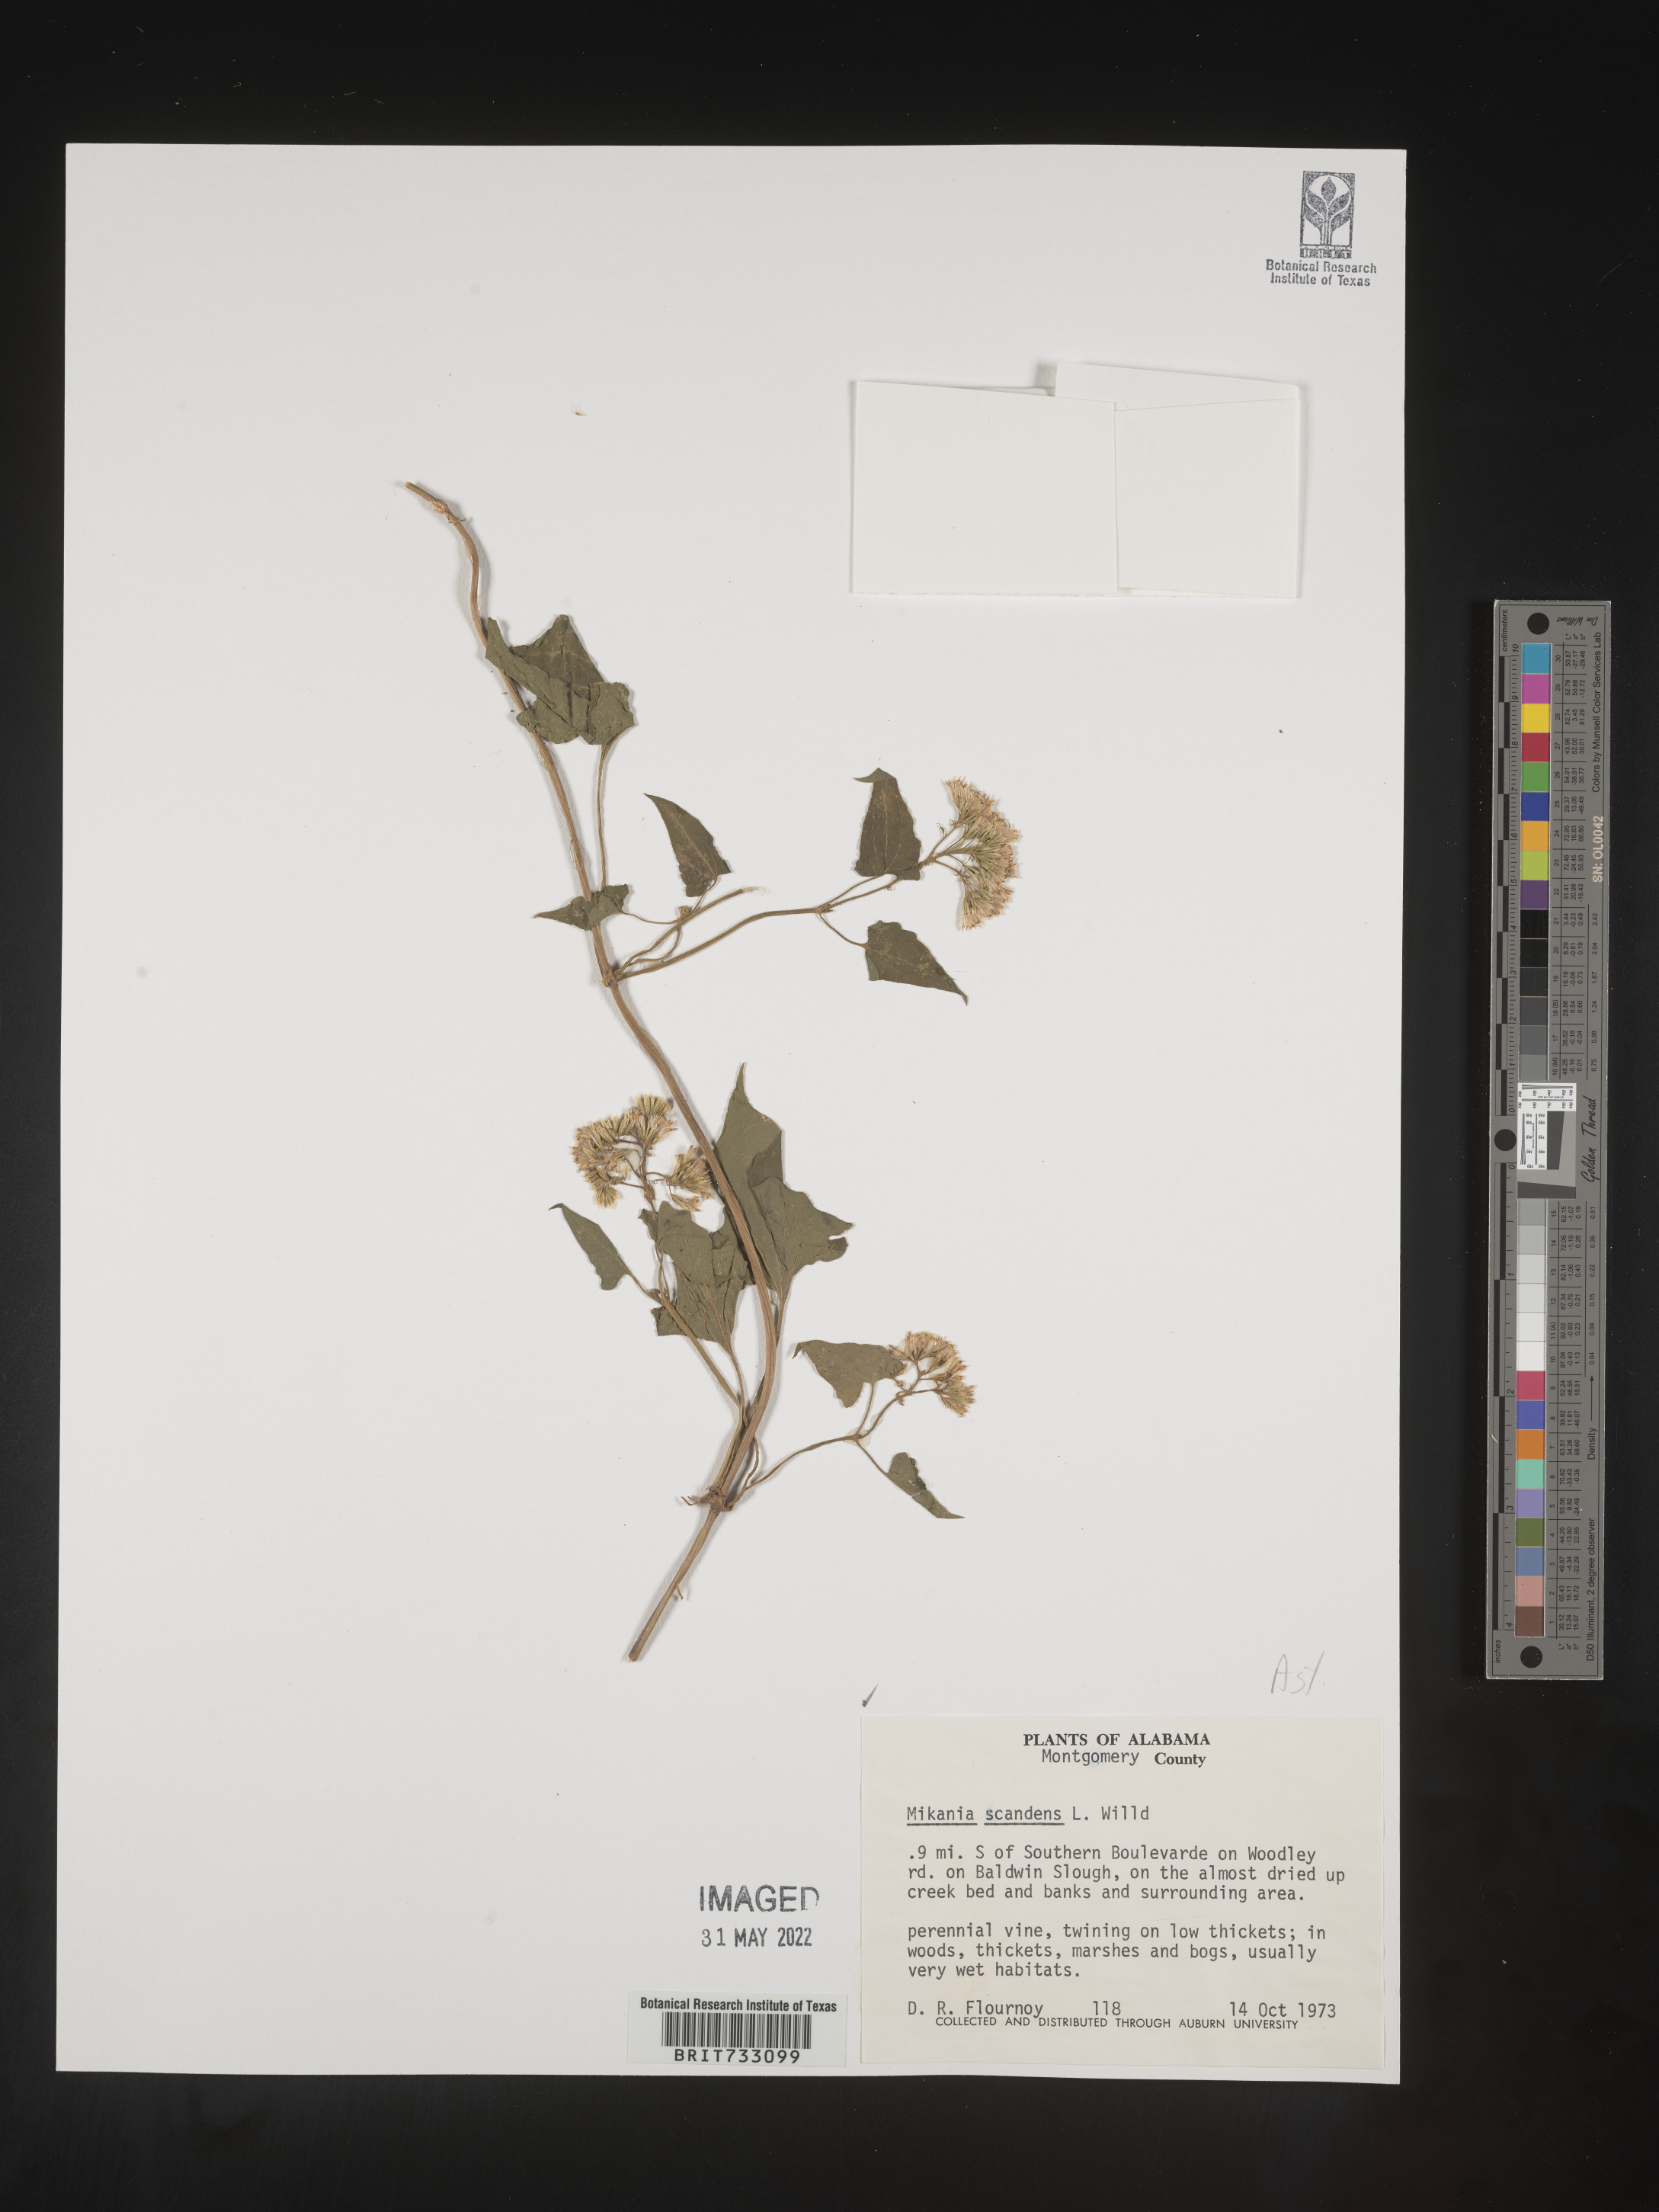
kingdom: Plantae
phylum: Tracheophyta
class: Magnoliopsida
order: Asterales
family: Asteraceae
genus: Mikania
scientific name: Mikania scandens
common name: Climbing hempvine
